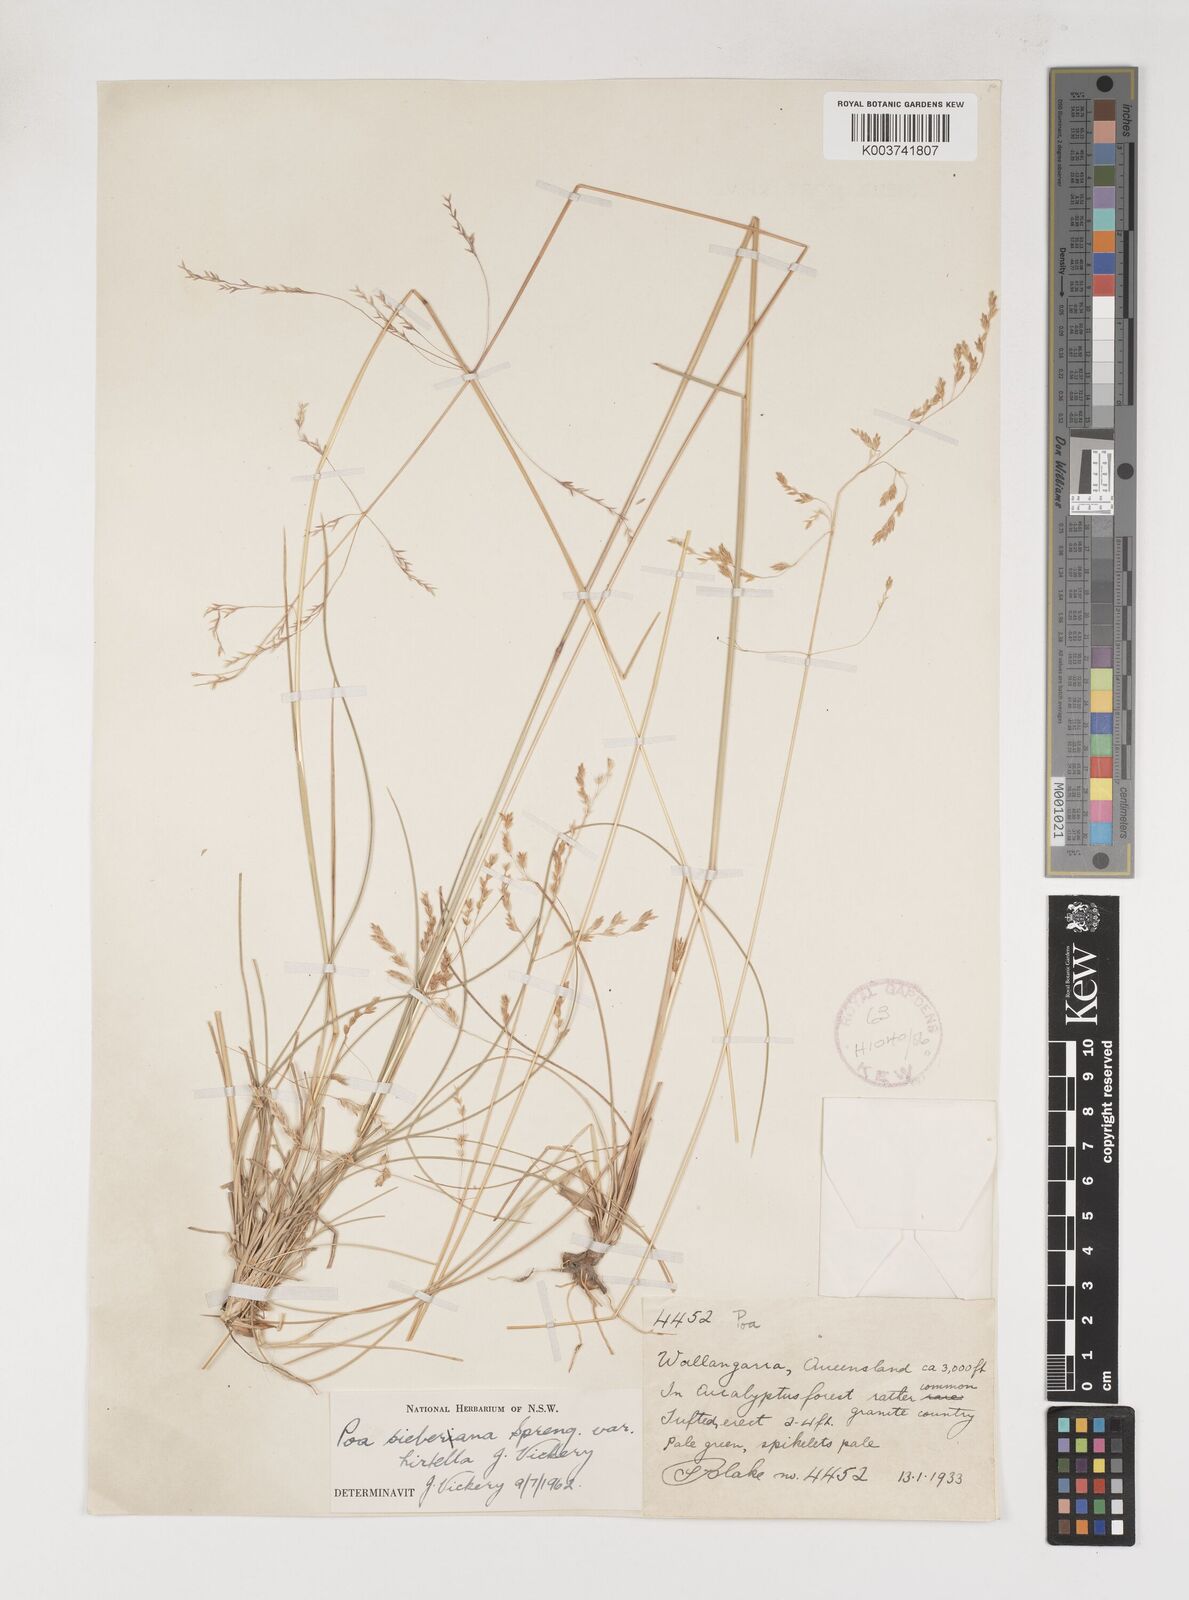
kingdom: Plantae
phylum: Tracheophyta
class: Liliopsida
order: Poales
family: Poaceae
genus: Poa
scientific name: Poa sieberiana
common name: Tussock poa
